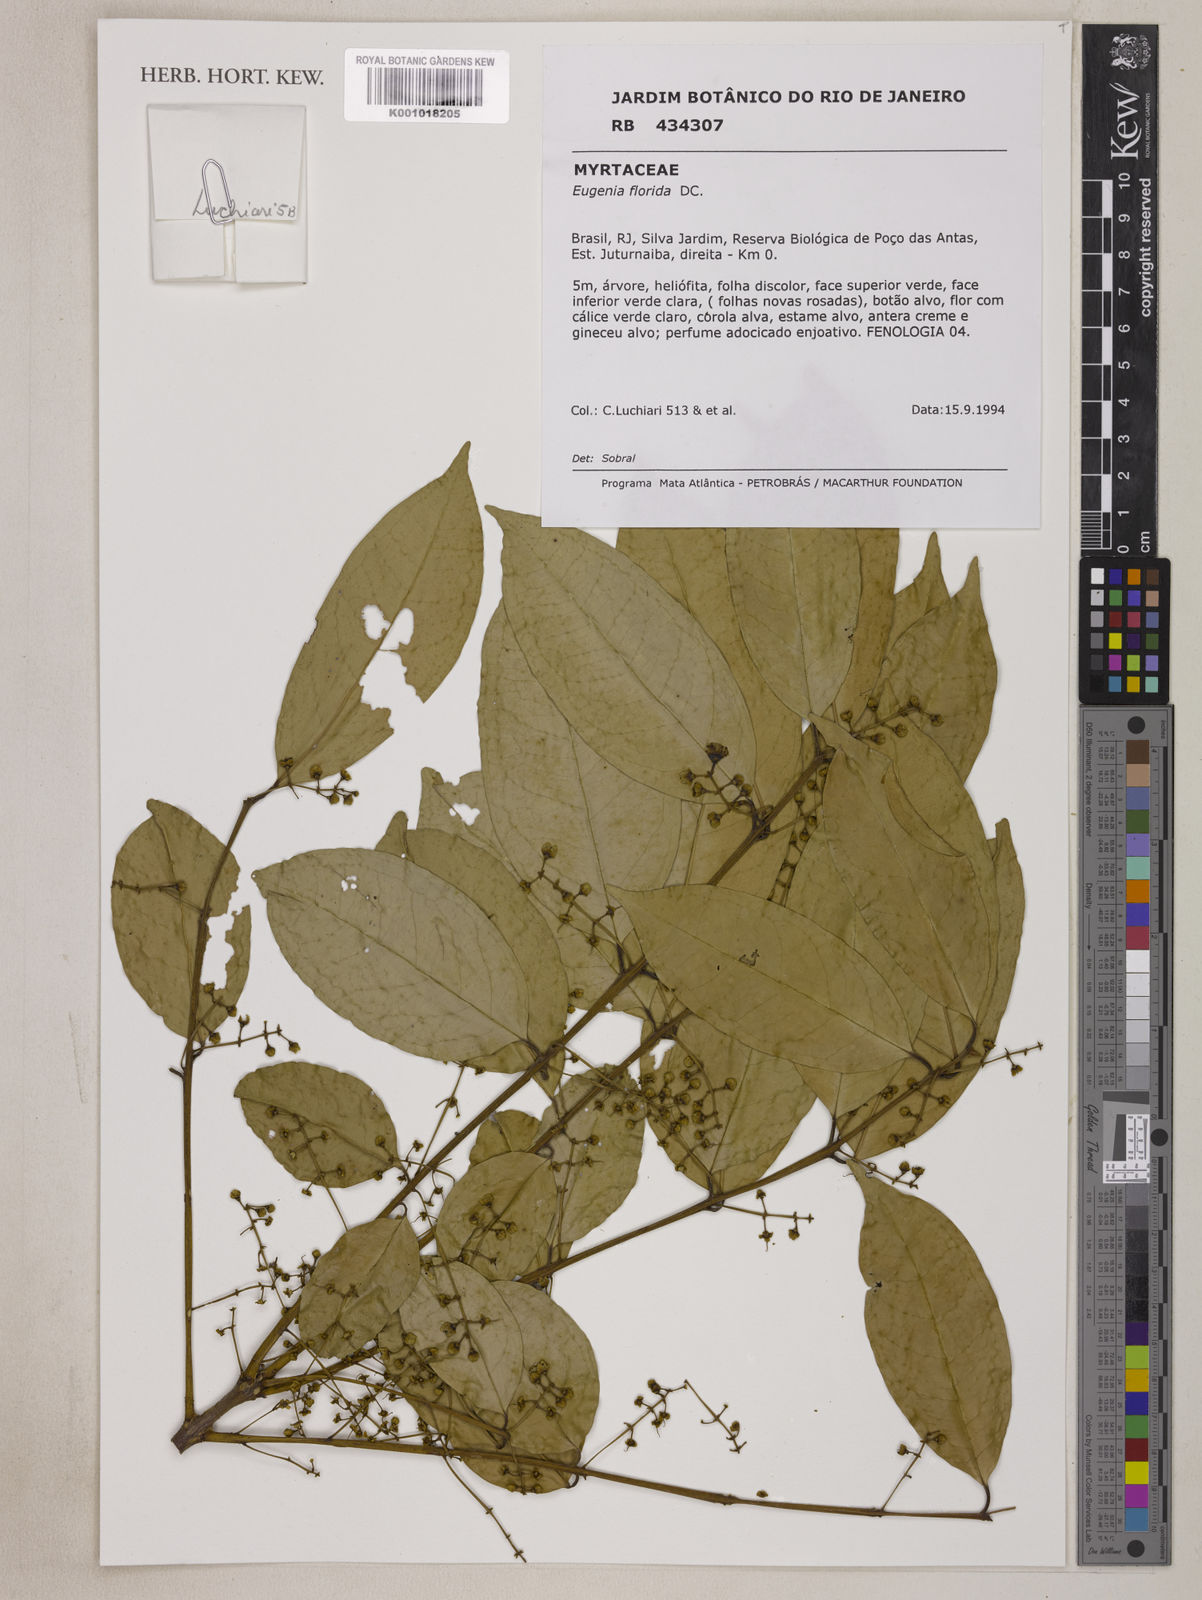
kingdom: Plantae
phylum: Tracheophyta
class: Magnoliopsida
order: Myrtales
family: Myrtaceae
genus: Eugenia
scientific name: Eugenia florida
